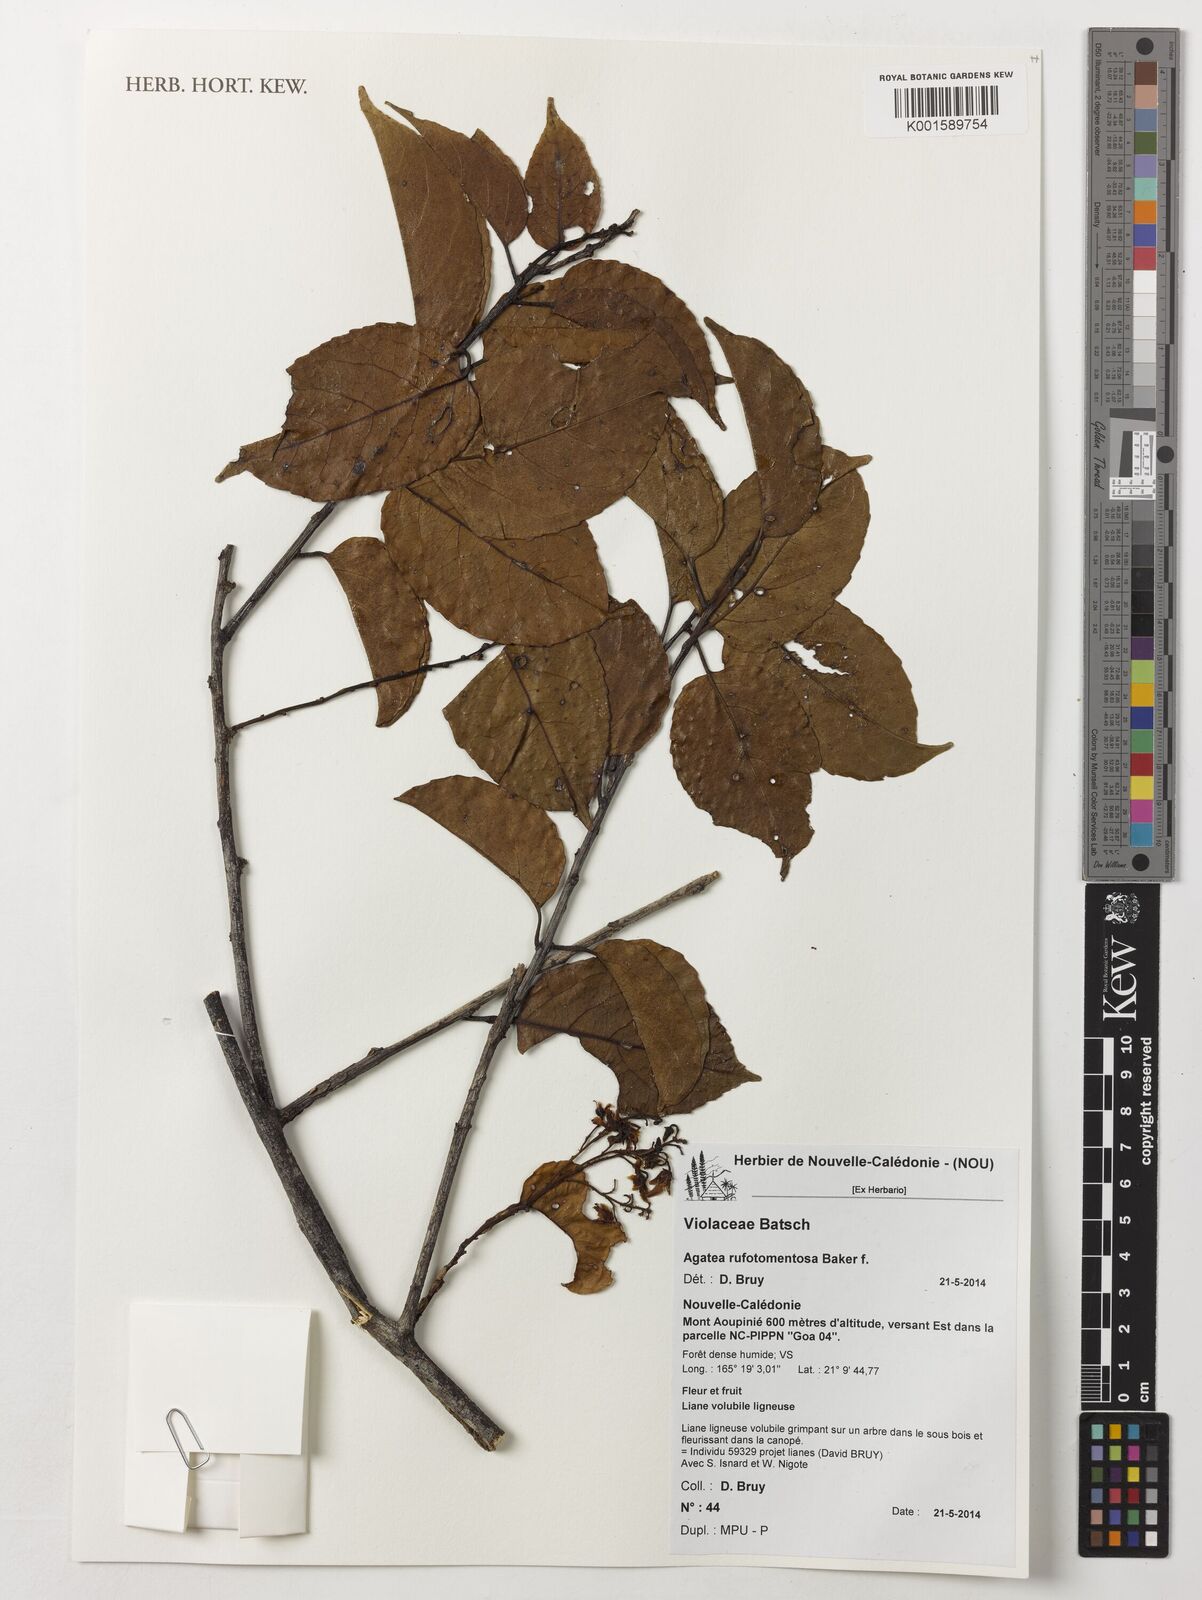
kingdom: Plantae
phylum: Tracheophyta
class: Magnoliopsida
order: Malpighiales
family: Violaceae
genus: Agatea
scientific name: Agatea rufotomentosa
